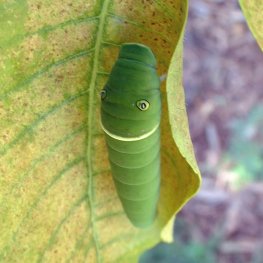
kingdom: Animalia
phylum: Arthropoda
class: Insecta
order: Lepidoptera
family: Papilionidae
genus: Pterourus
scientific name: Pterourus glaucus
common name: Eastern Tiger Swallowtail
